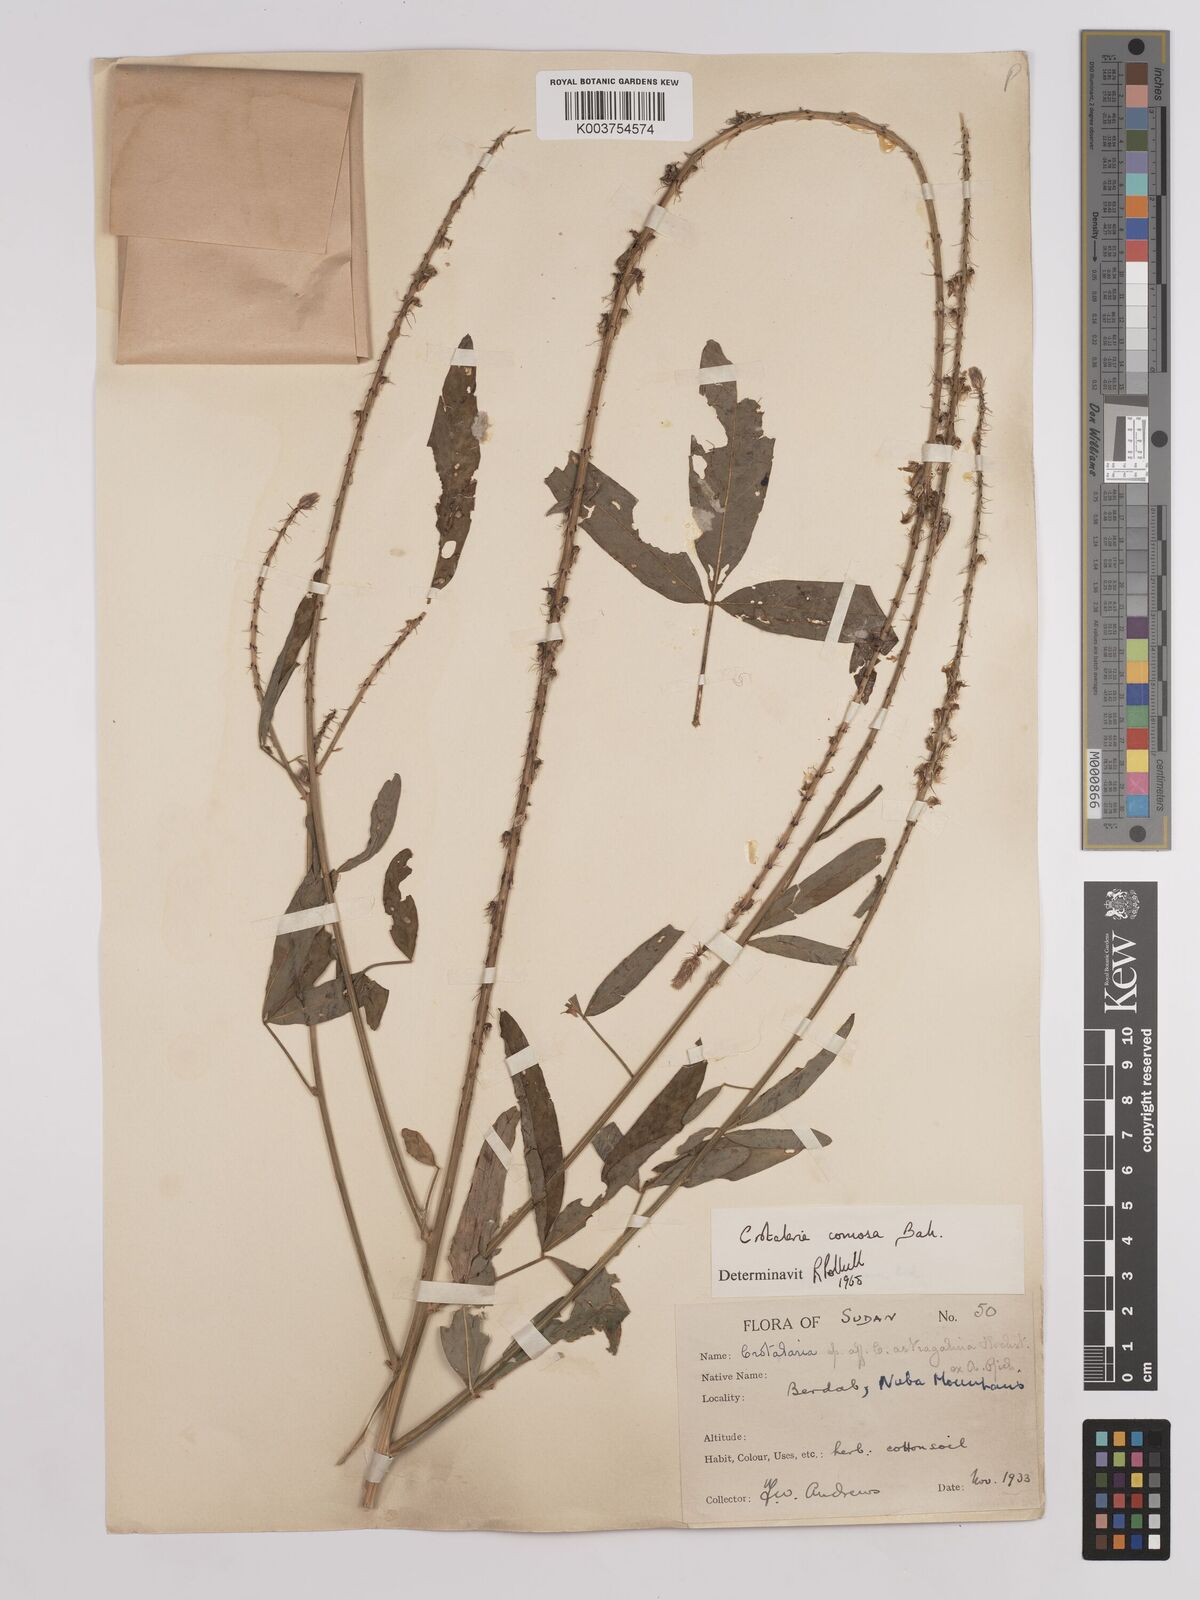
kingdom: Plantae
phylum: Tracheophyta
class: Magnoliopsida
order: Fabales
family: Fabaceae
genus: Crotalaria
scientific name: Crotalaria comosa
